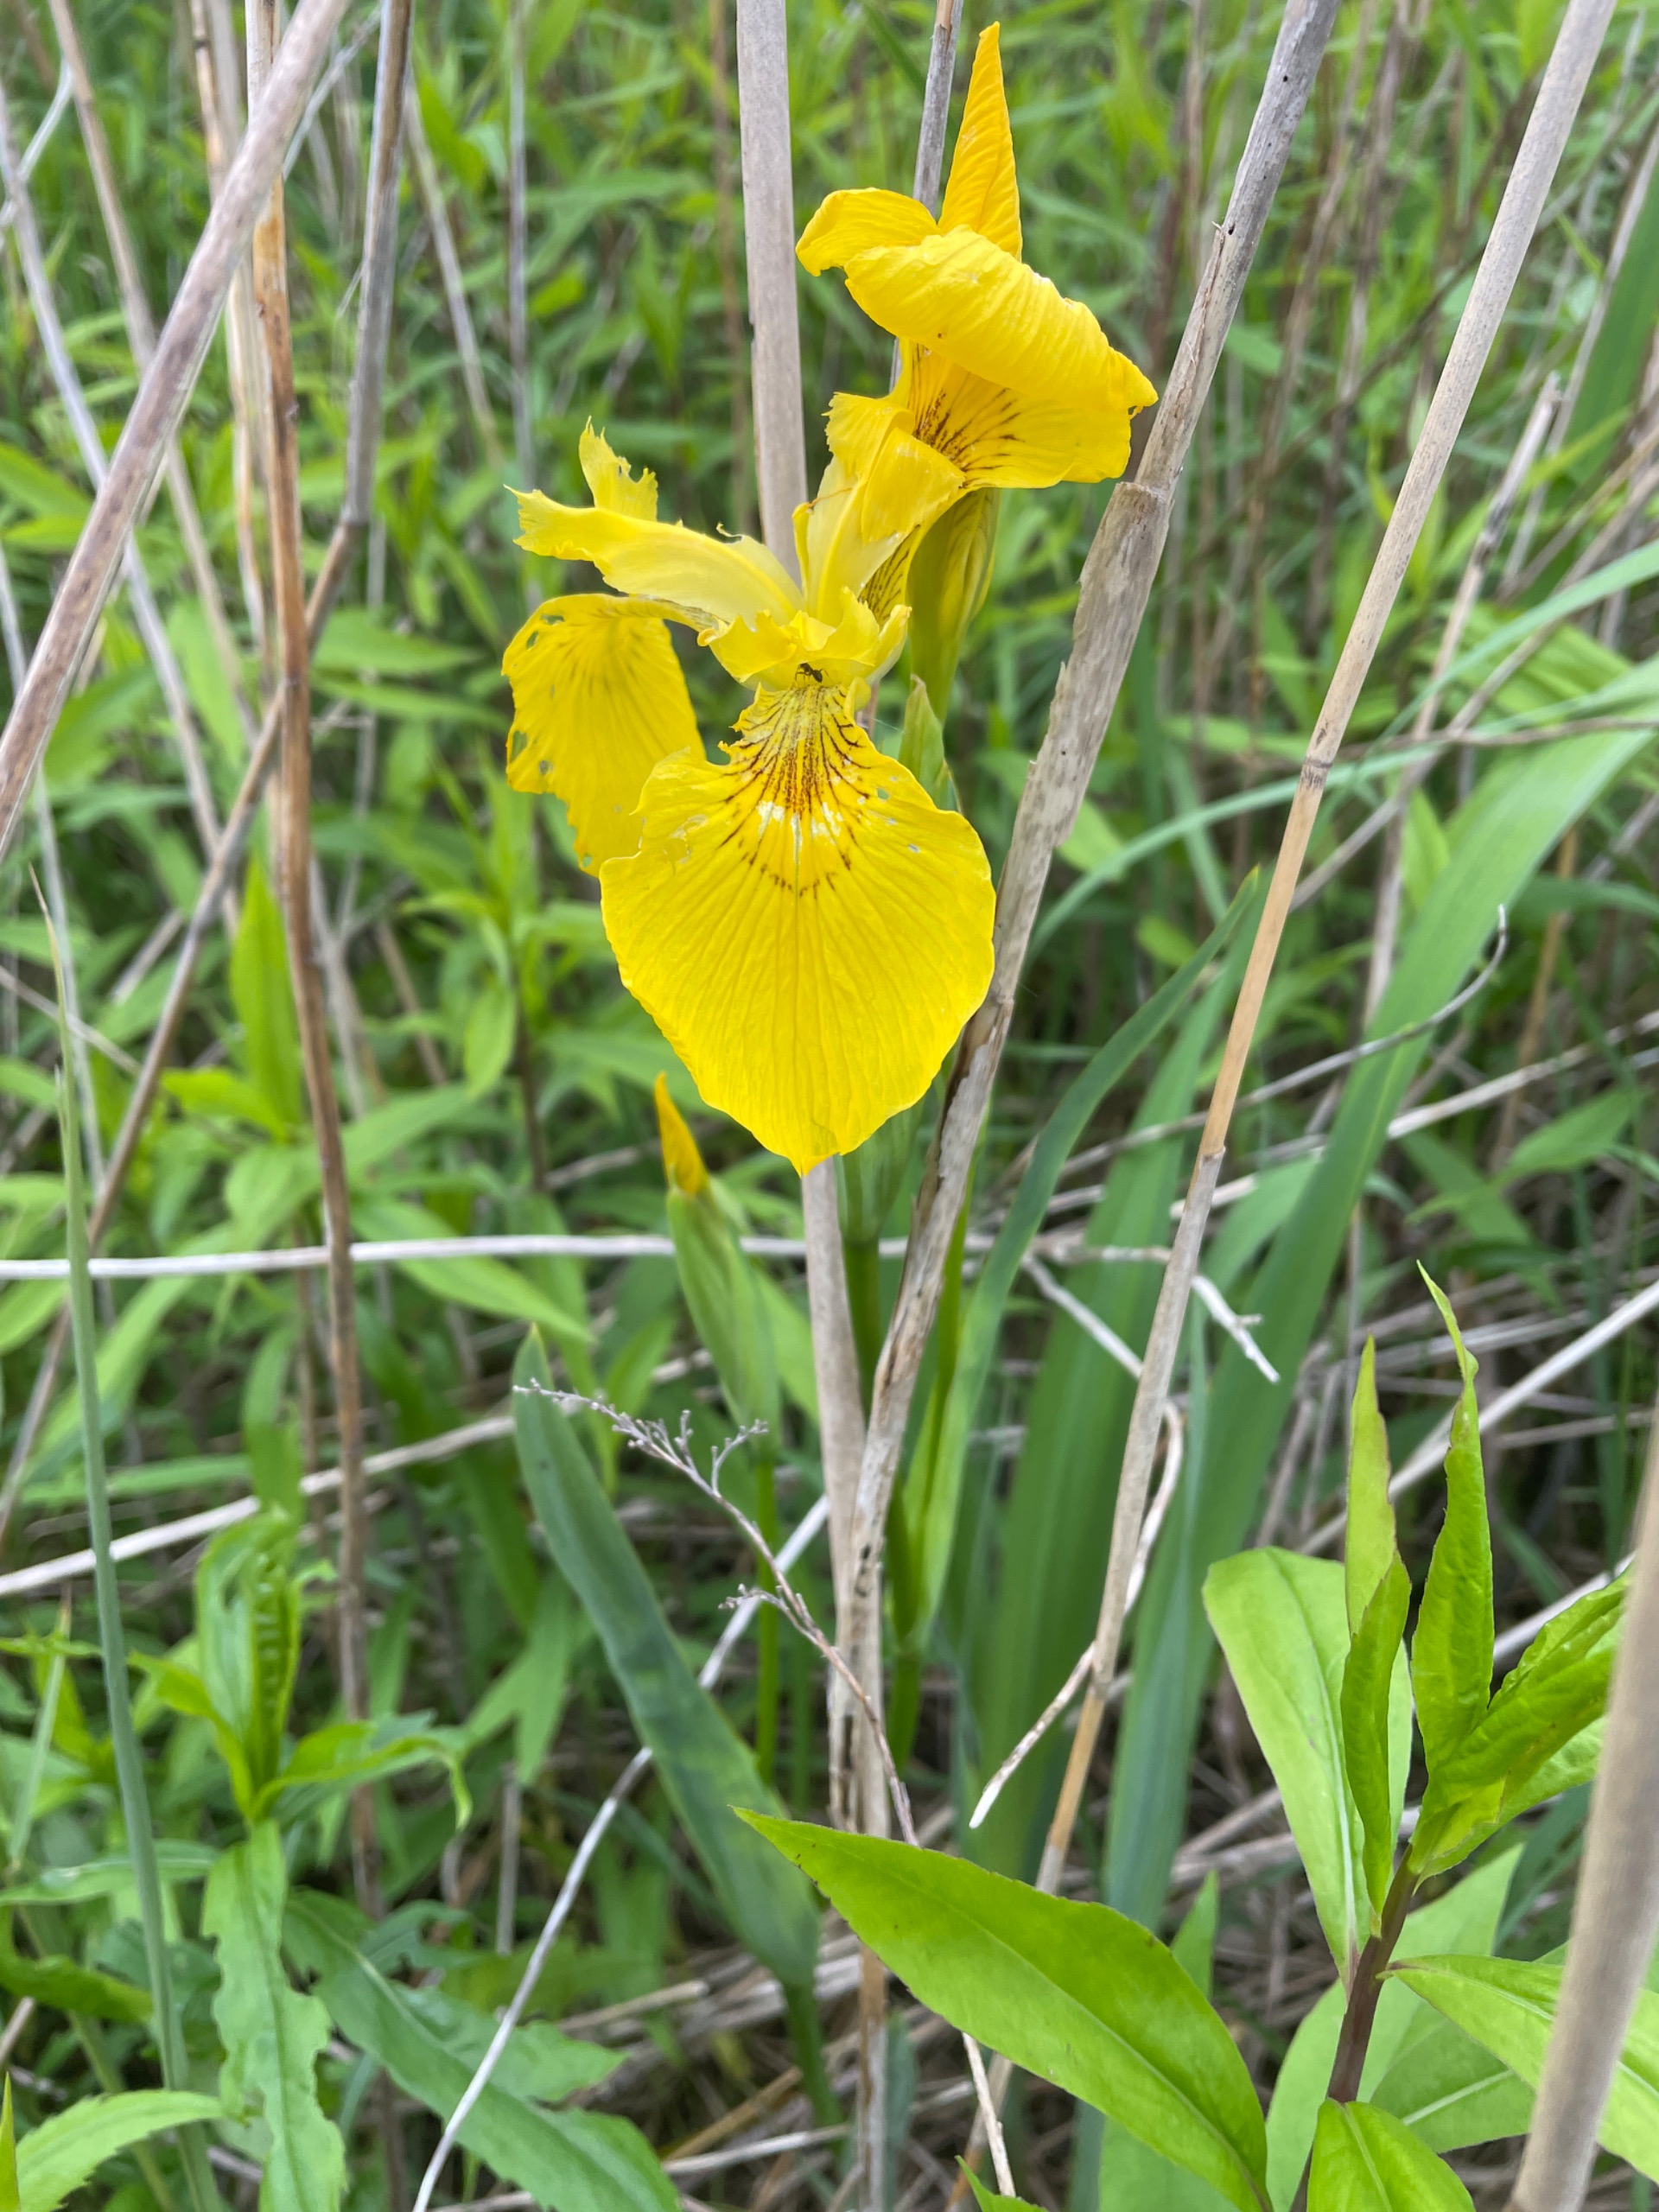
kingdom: Plantae
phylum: Tracheophyta
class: Liliopsida
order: Asparagales
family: Iridaceae
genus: Iris
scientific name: Iris pseudacorus
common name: Gul iris
